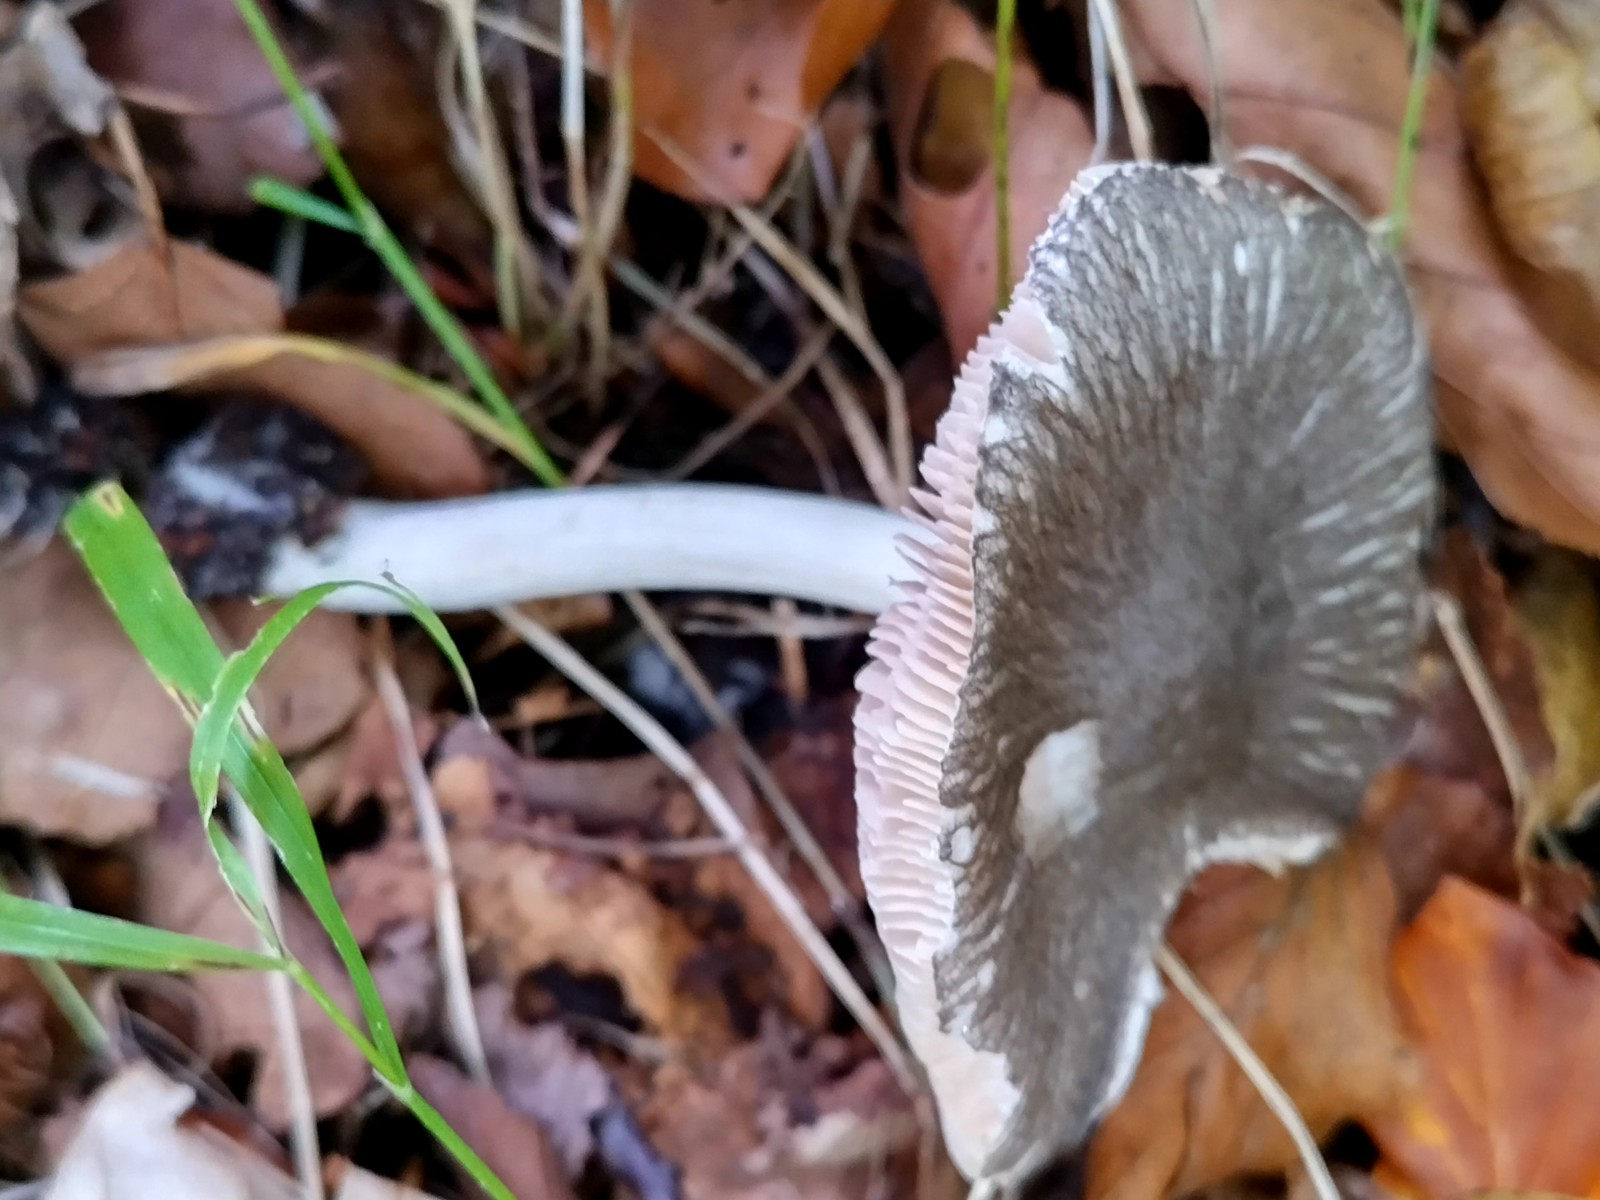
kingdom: Fungi
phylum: Basidiomycota
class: Agaricomycetes
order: Agaricales
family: Pluteaceae
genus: Pluteus
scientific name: Pluteus
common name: gråfibret skærmhat
